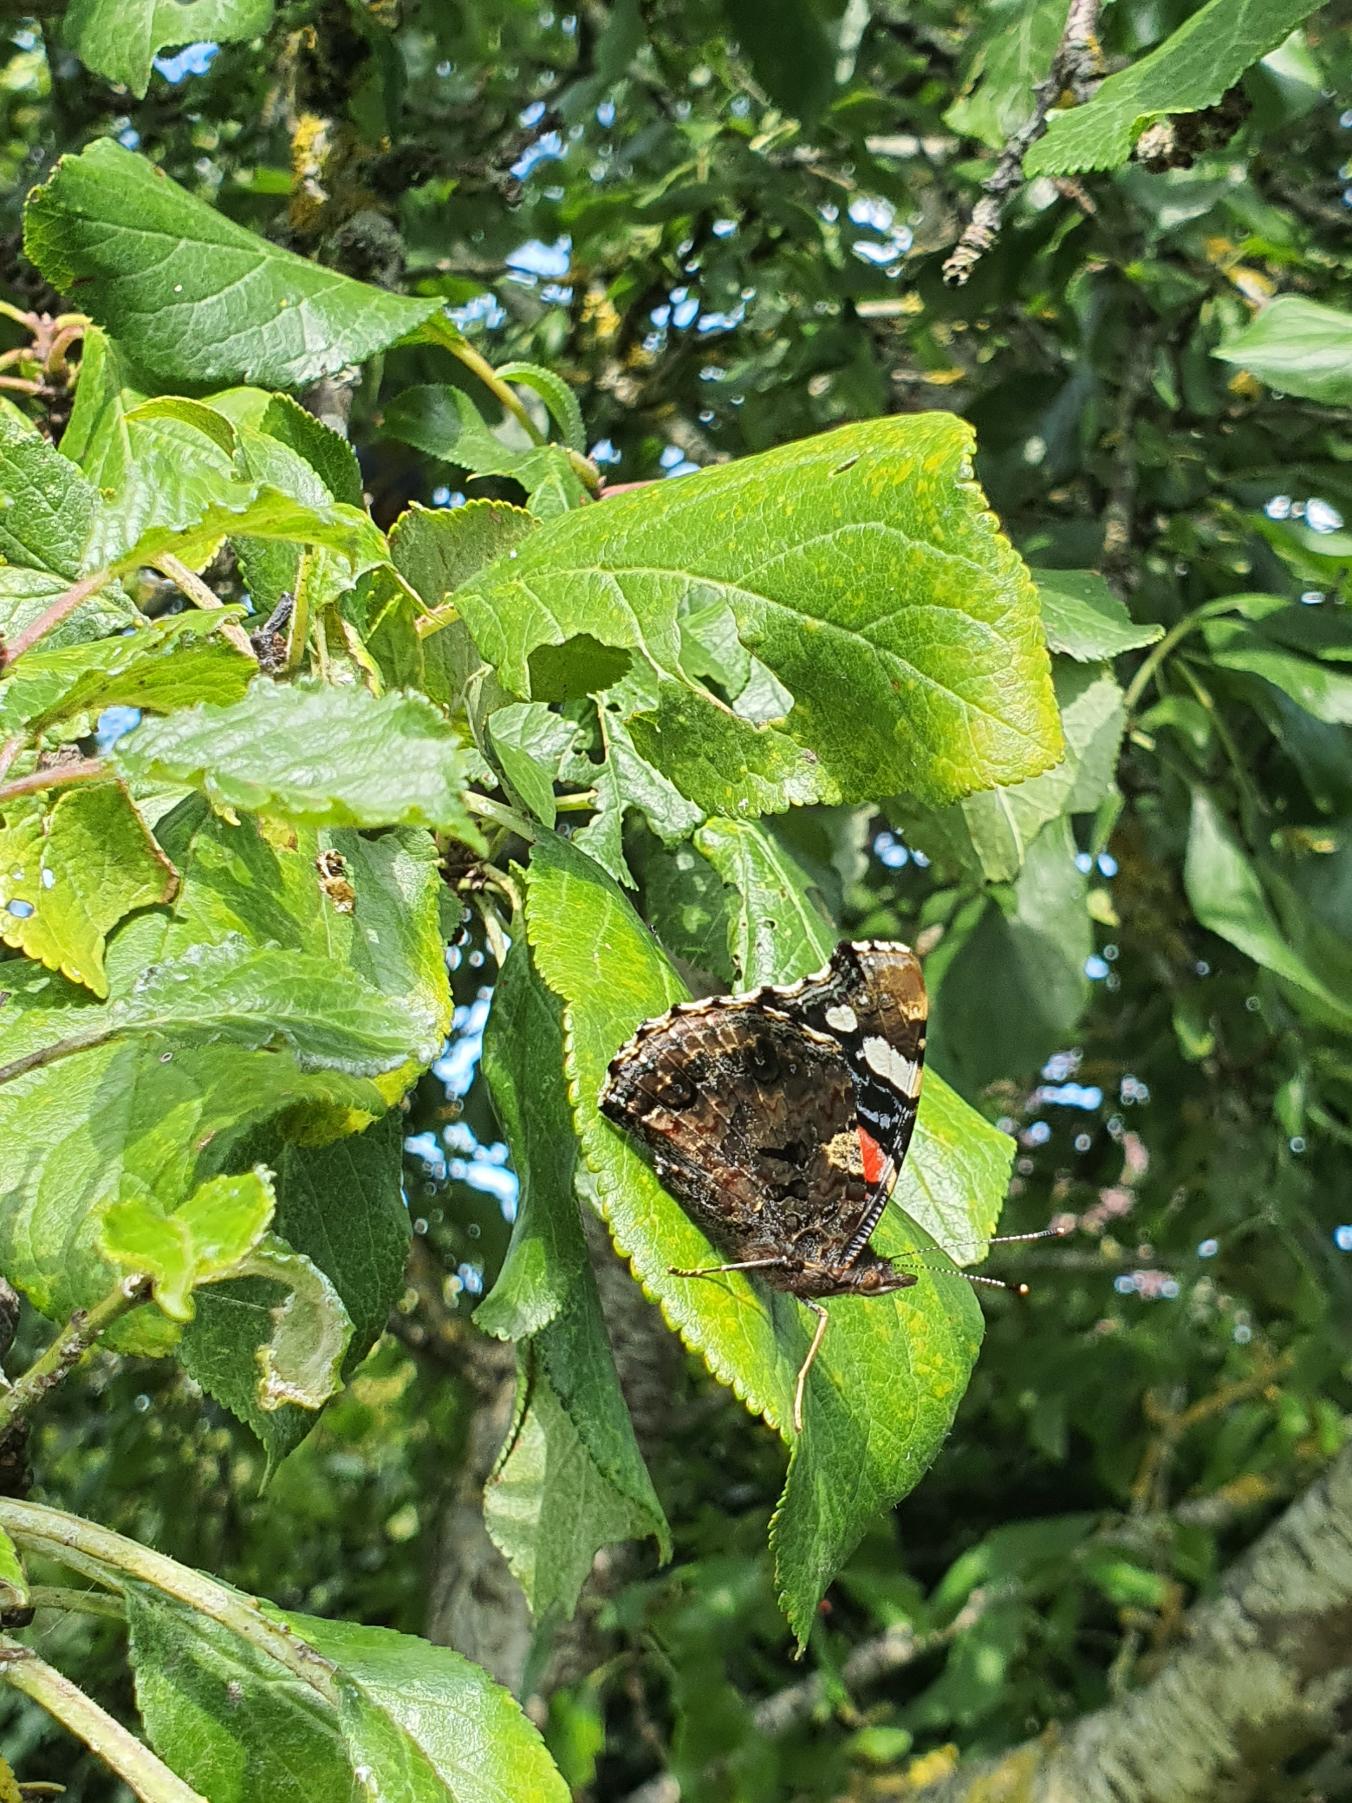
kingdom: Animalia
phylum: Arthropoda
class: Insecta
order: Lepidoptera
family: Nymphalidae
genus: Vanessa
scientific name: Vanessa atalanta
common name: Admiral
